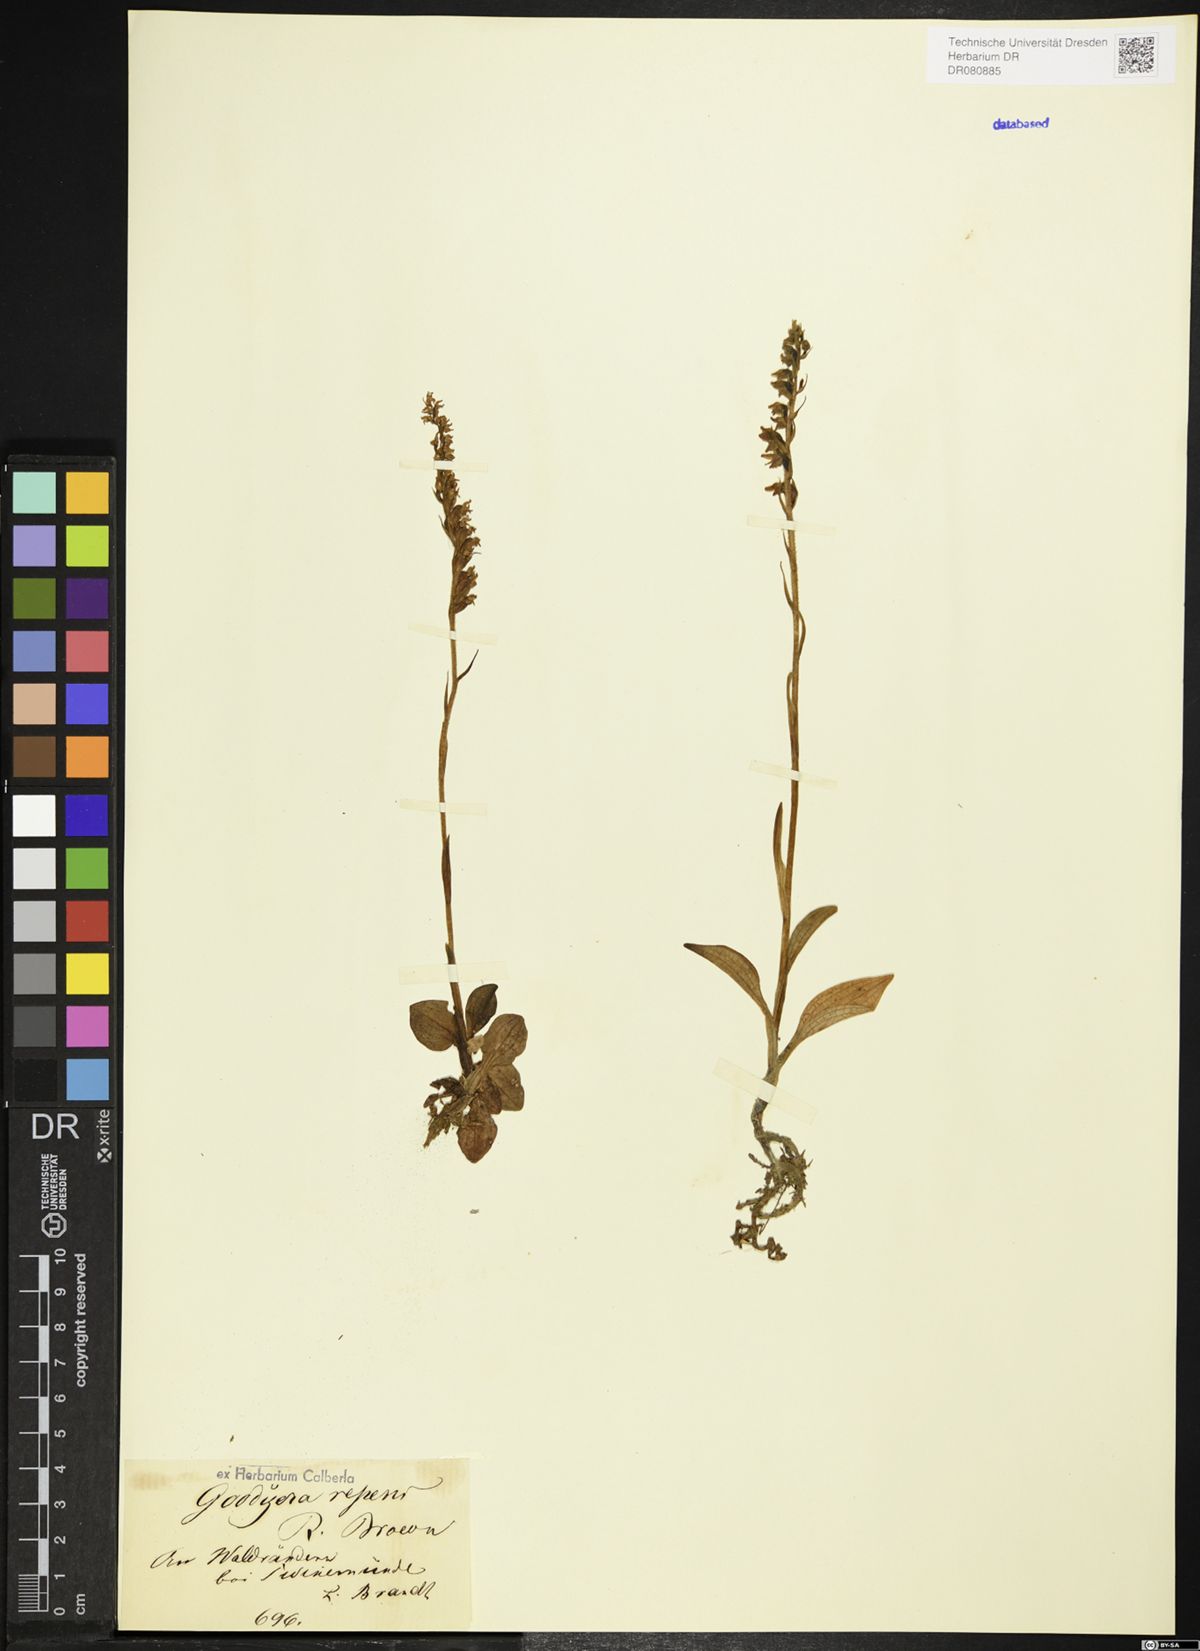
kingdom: Plantae
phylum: Tracheophyta
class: Liliopsida
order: Asparagales
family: Orchidaceae
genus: Goodyera
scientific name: Goodyera repens
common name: Creeping lady's-tresses
